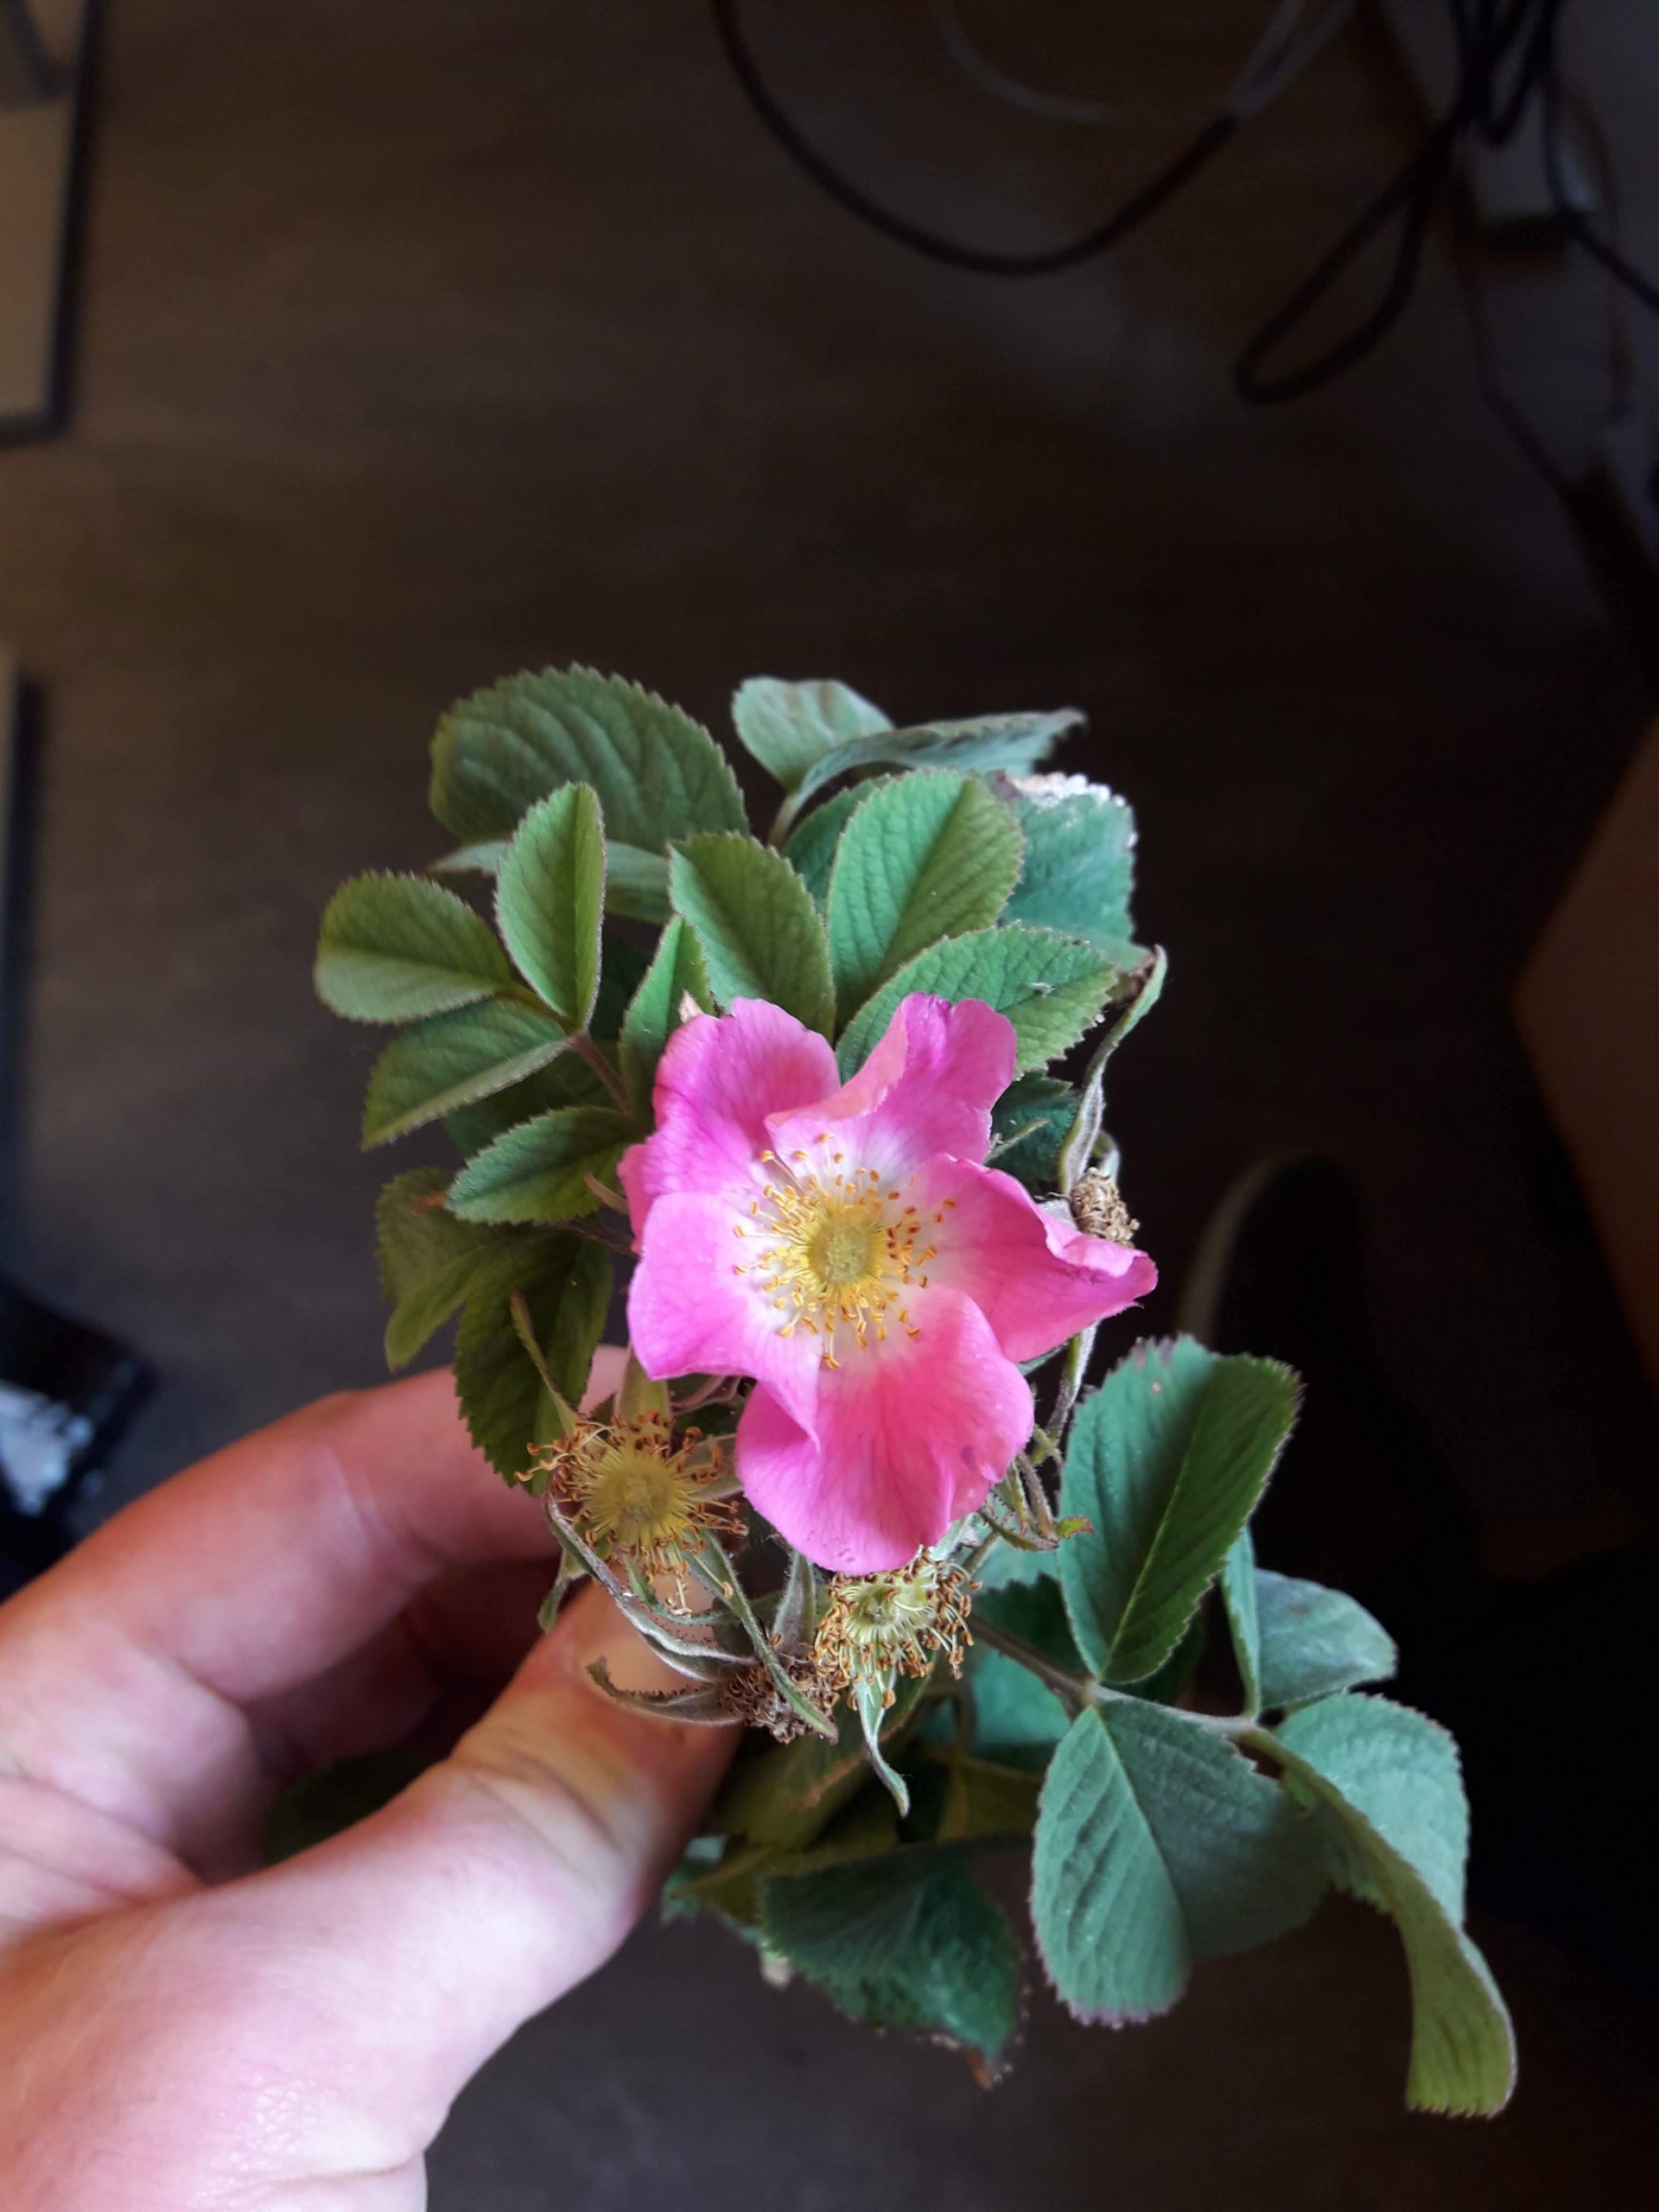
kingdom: Plantae
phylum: Tracheophyta
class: Magnoliopsida
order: Rosales
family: Rosaceae
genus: Rosa
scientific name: Rosa mollis
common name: Blød filt-rose
